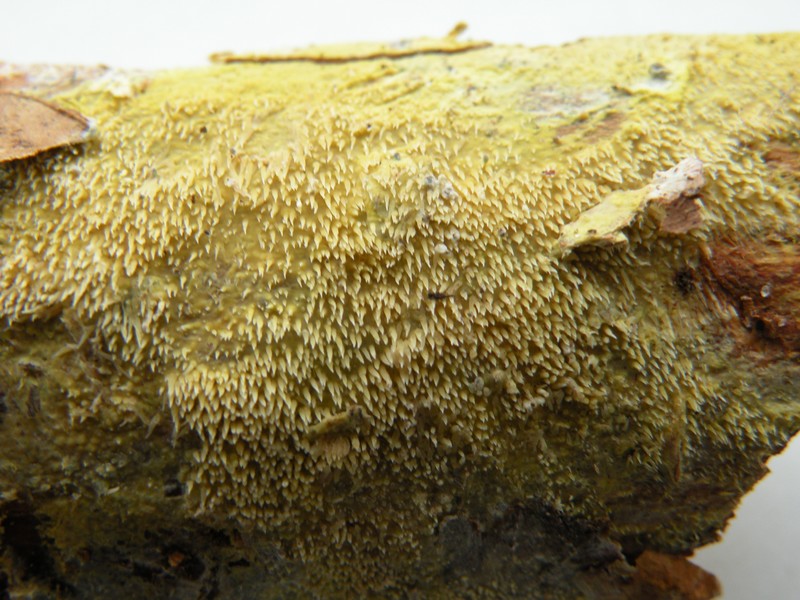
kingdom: Fungi
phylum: Basidiomycota
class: Agaricomycetes
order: Polyporales
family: Meruliaceae
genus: Mycoacia
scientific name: Mycoacia uda
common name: citrongul vokspig
